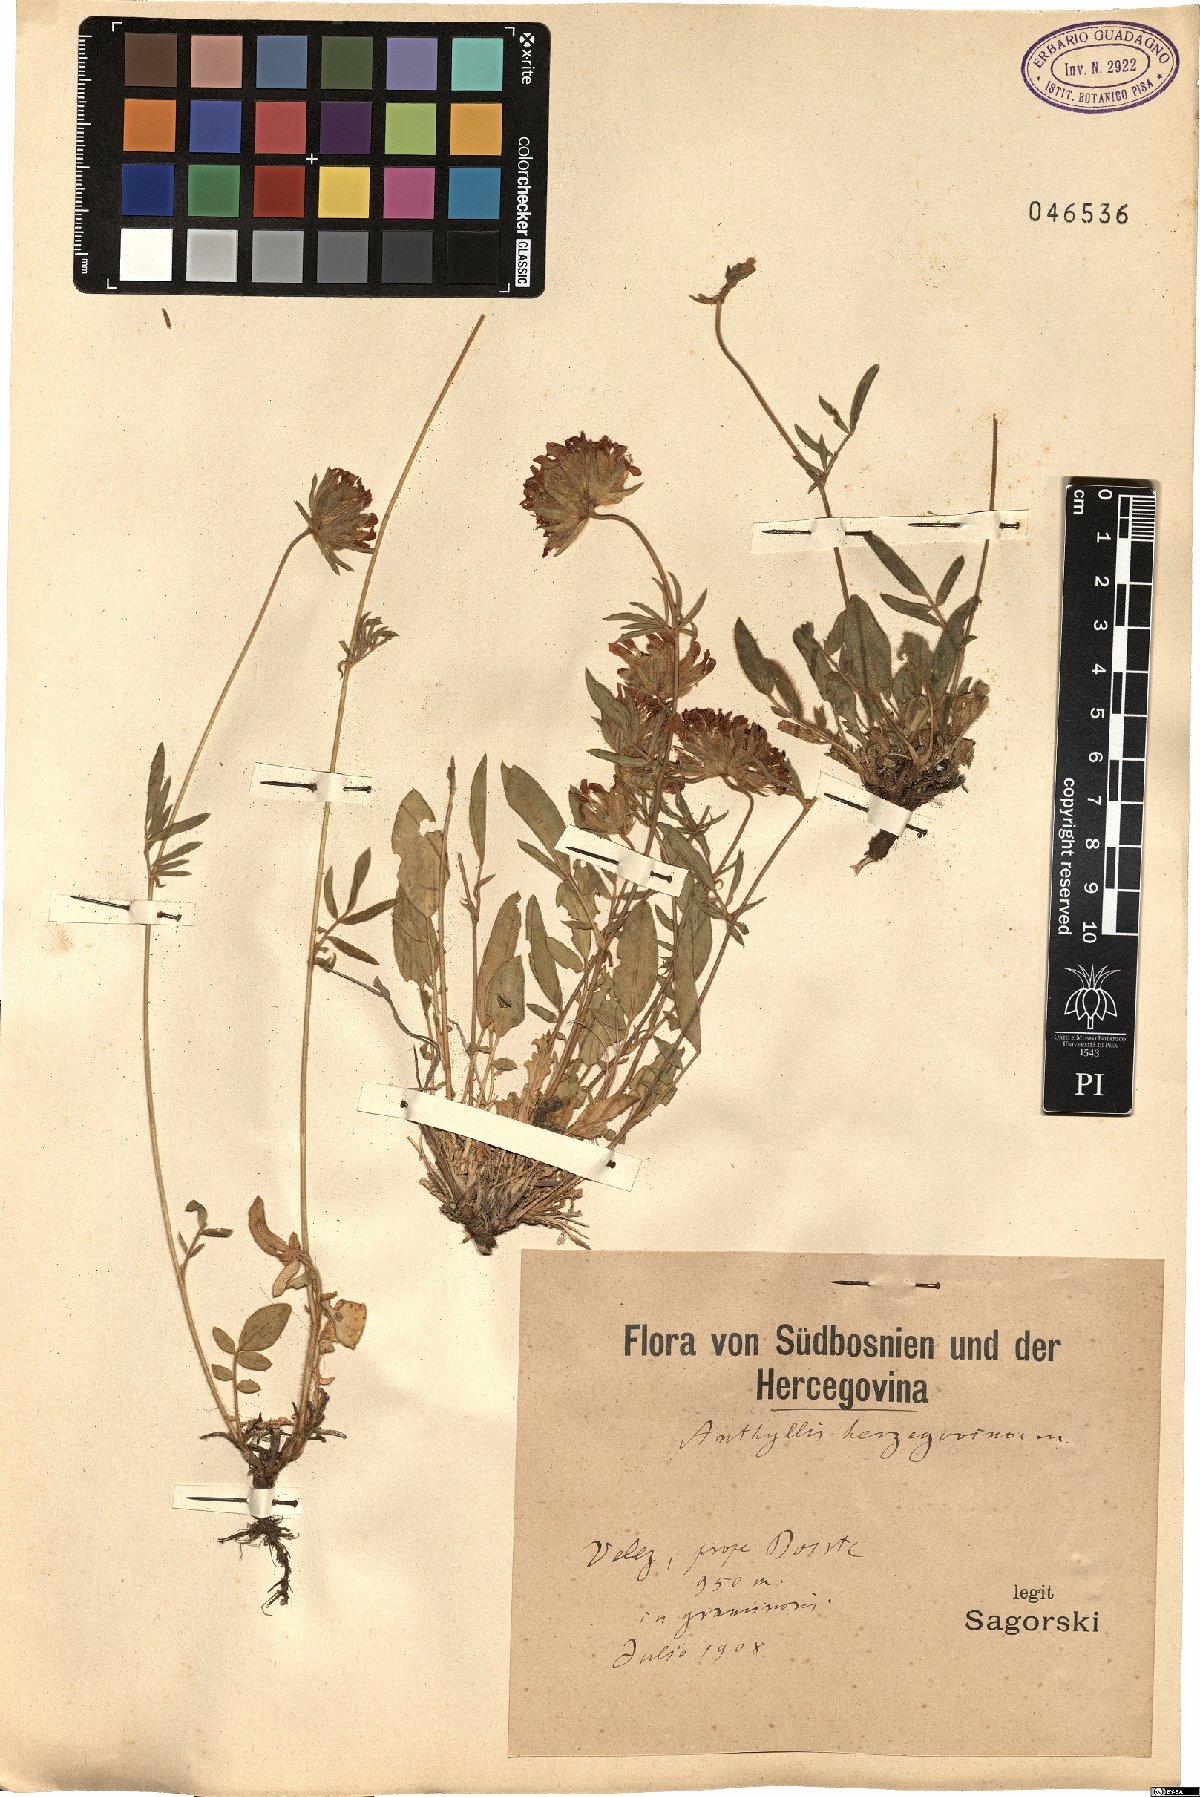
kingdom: Plantae
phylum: Tracheophyta
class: Magnoliopsida
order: Fabales
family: Fabaceae
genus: Anthyllis
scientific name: Anthyllis vulneraria
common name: Kidney vetch
